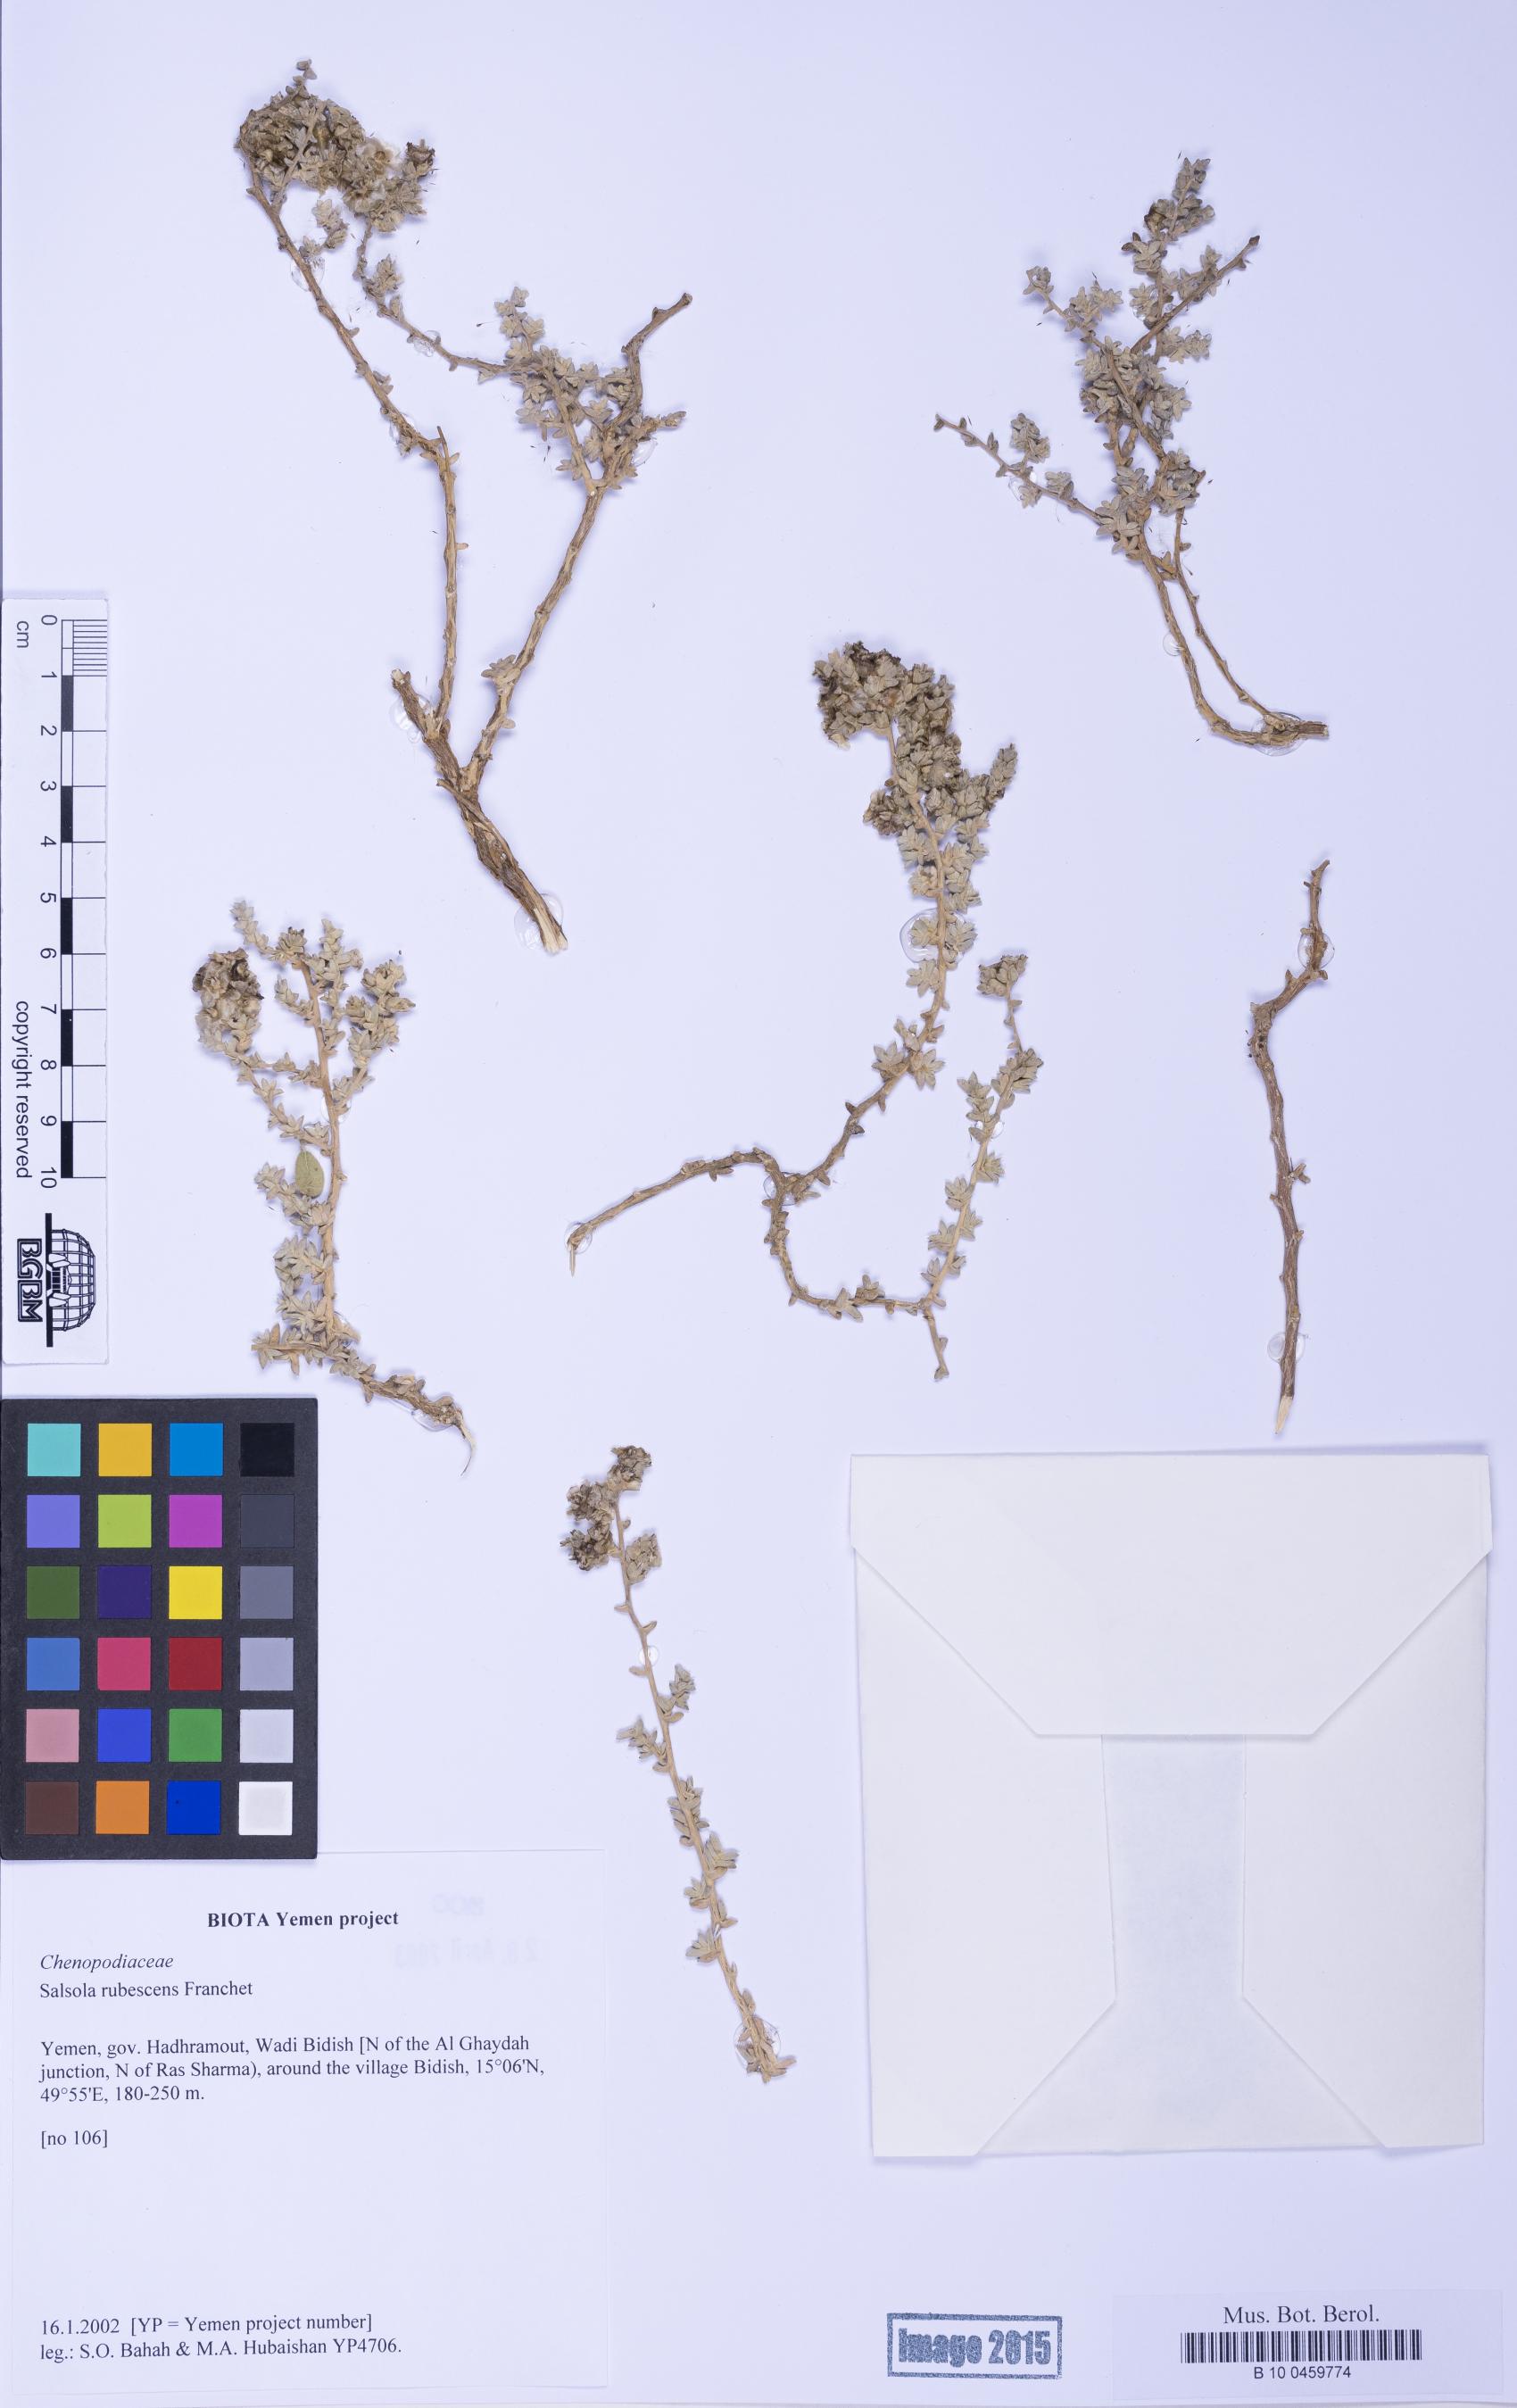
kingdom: Plantae
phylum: Tracheophyta
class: Magnoliopsida
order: Caryophyllales
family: Amaranthaceae
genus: Kaviria
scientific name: Kaviria rubescens
